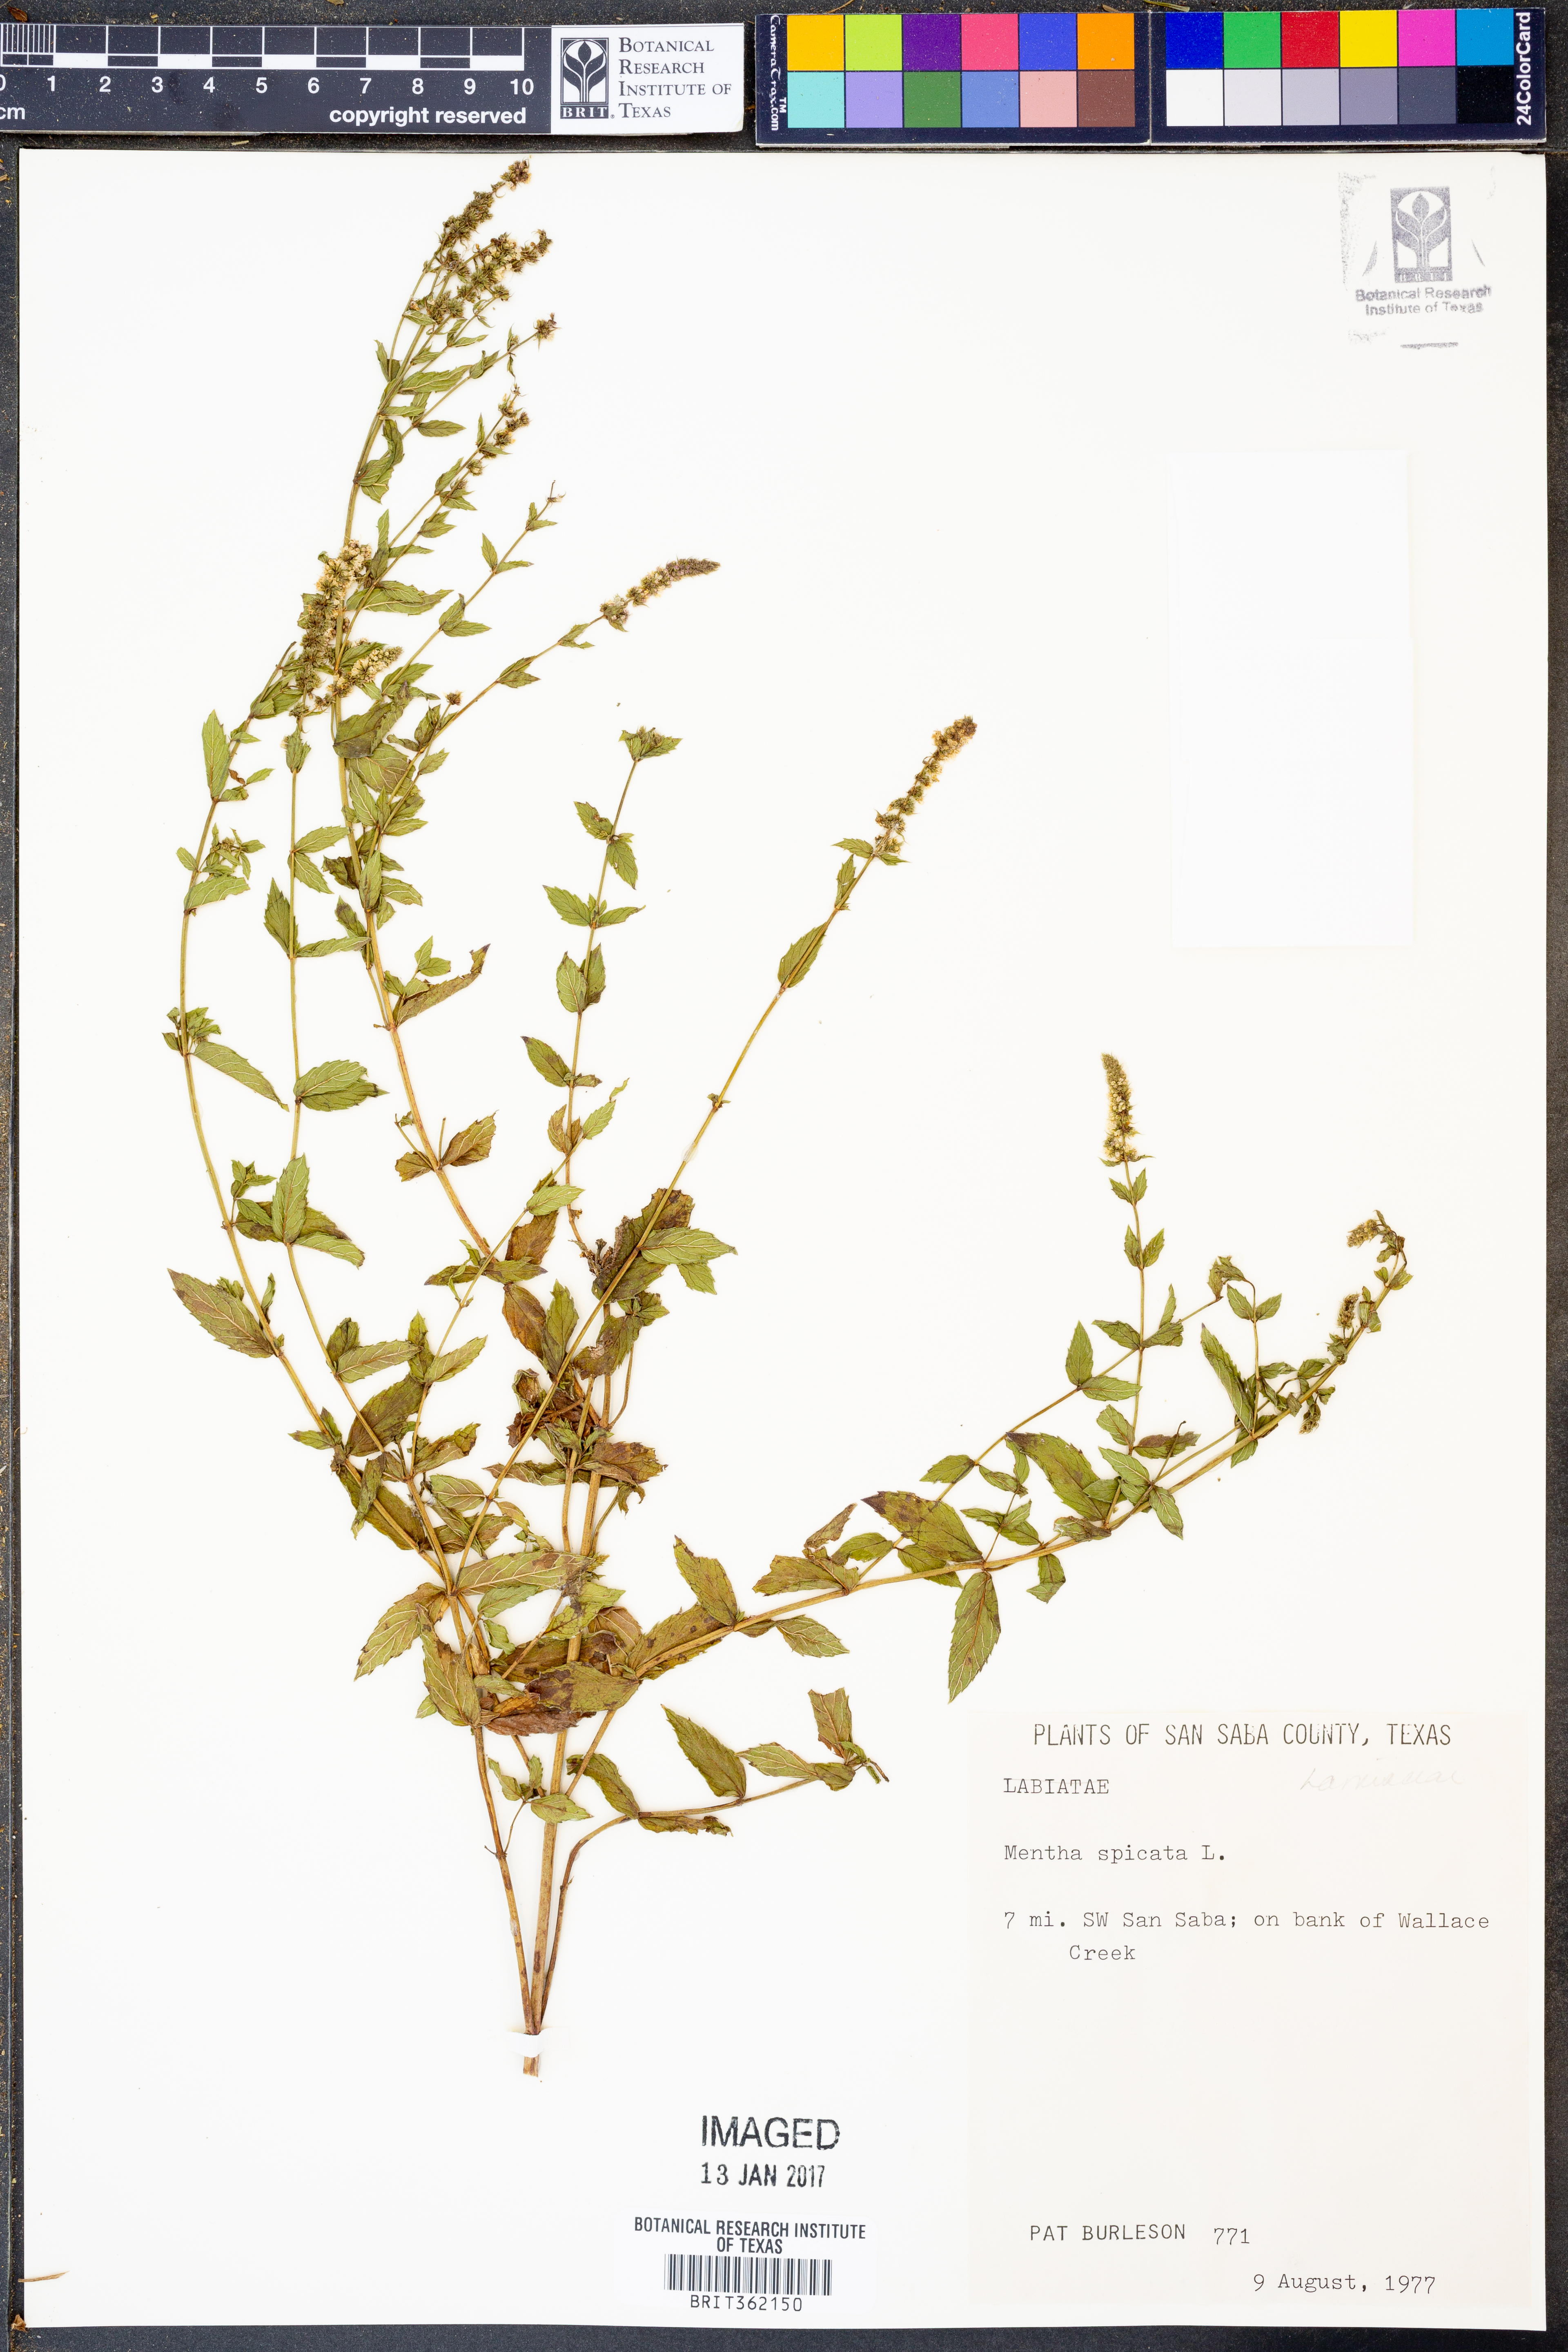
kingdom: Plantae
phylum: Tracheophyta
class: Magnoliopsida
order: Lamiales
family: Lamiaceae
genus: Mentha
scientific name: Mentha spicata
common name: Spearmint
